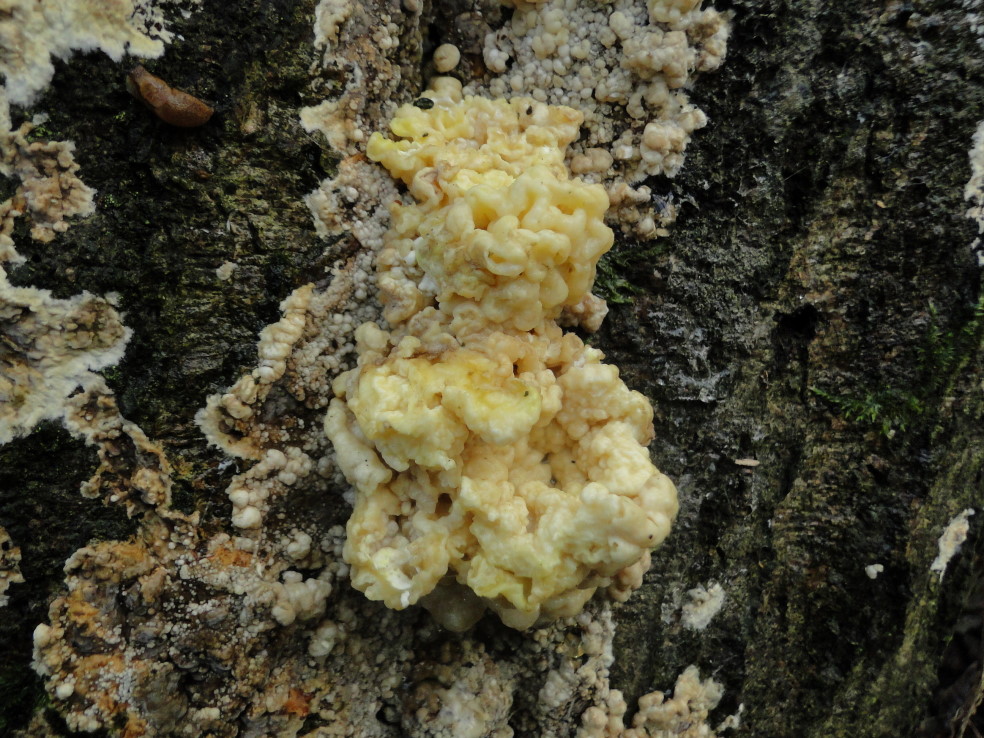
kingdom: Fungi
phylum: Ascomycota
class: Sordariomycetes
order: Xylariales
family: Hypoxylaceae
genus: Nodulisporium
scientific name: Nodulisporium cecidiogenes
